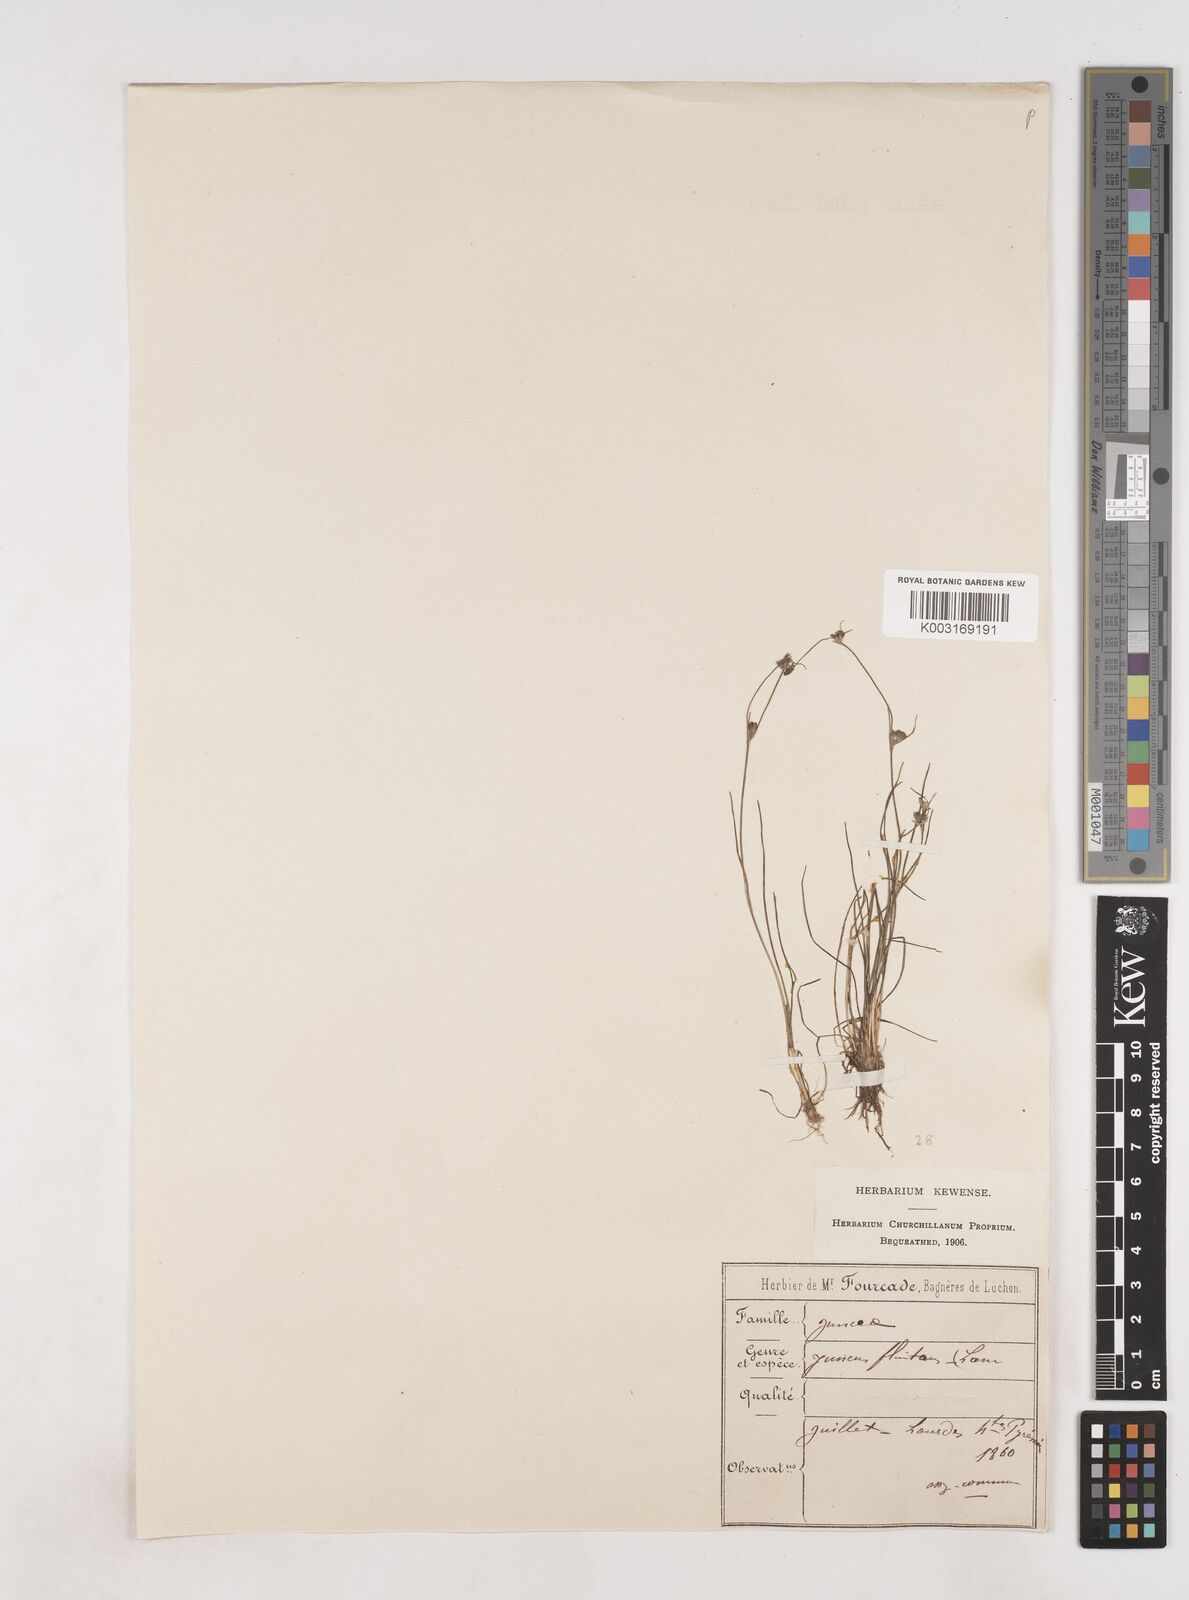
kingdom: Plantae
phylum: Tracheophyta
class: Liliopsida
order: Poales
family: Juncaceae
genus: Juncus
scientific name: Juncus bulbosus
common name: Bulbous rush
